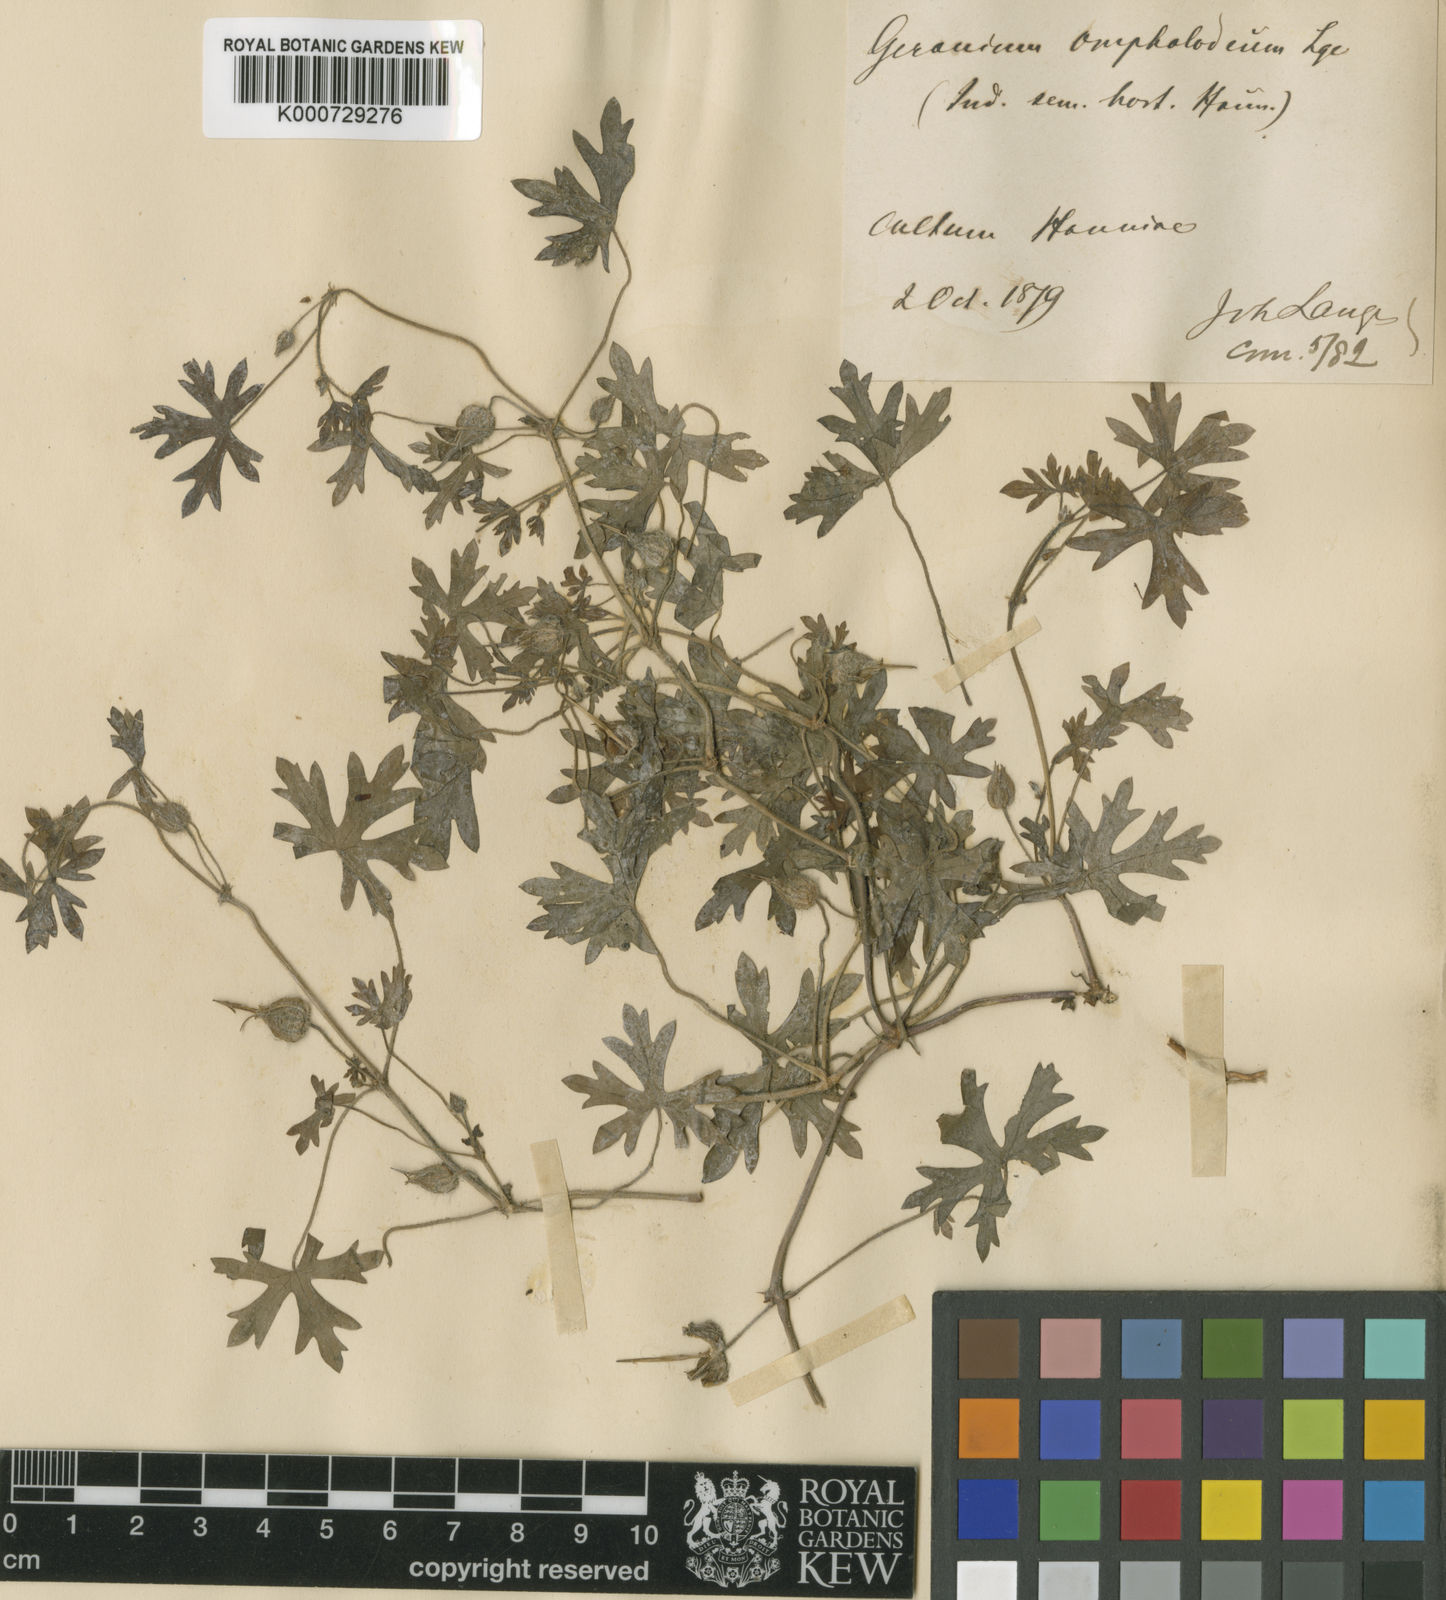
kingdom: Plantae
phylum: Tracheophyta
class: Magnoliopsida
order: Geraniales
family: Geraniaceae
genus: Geranium
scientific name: Geranium yemense
